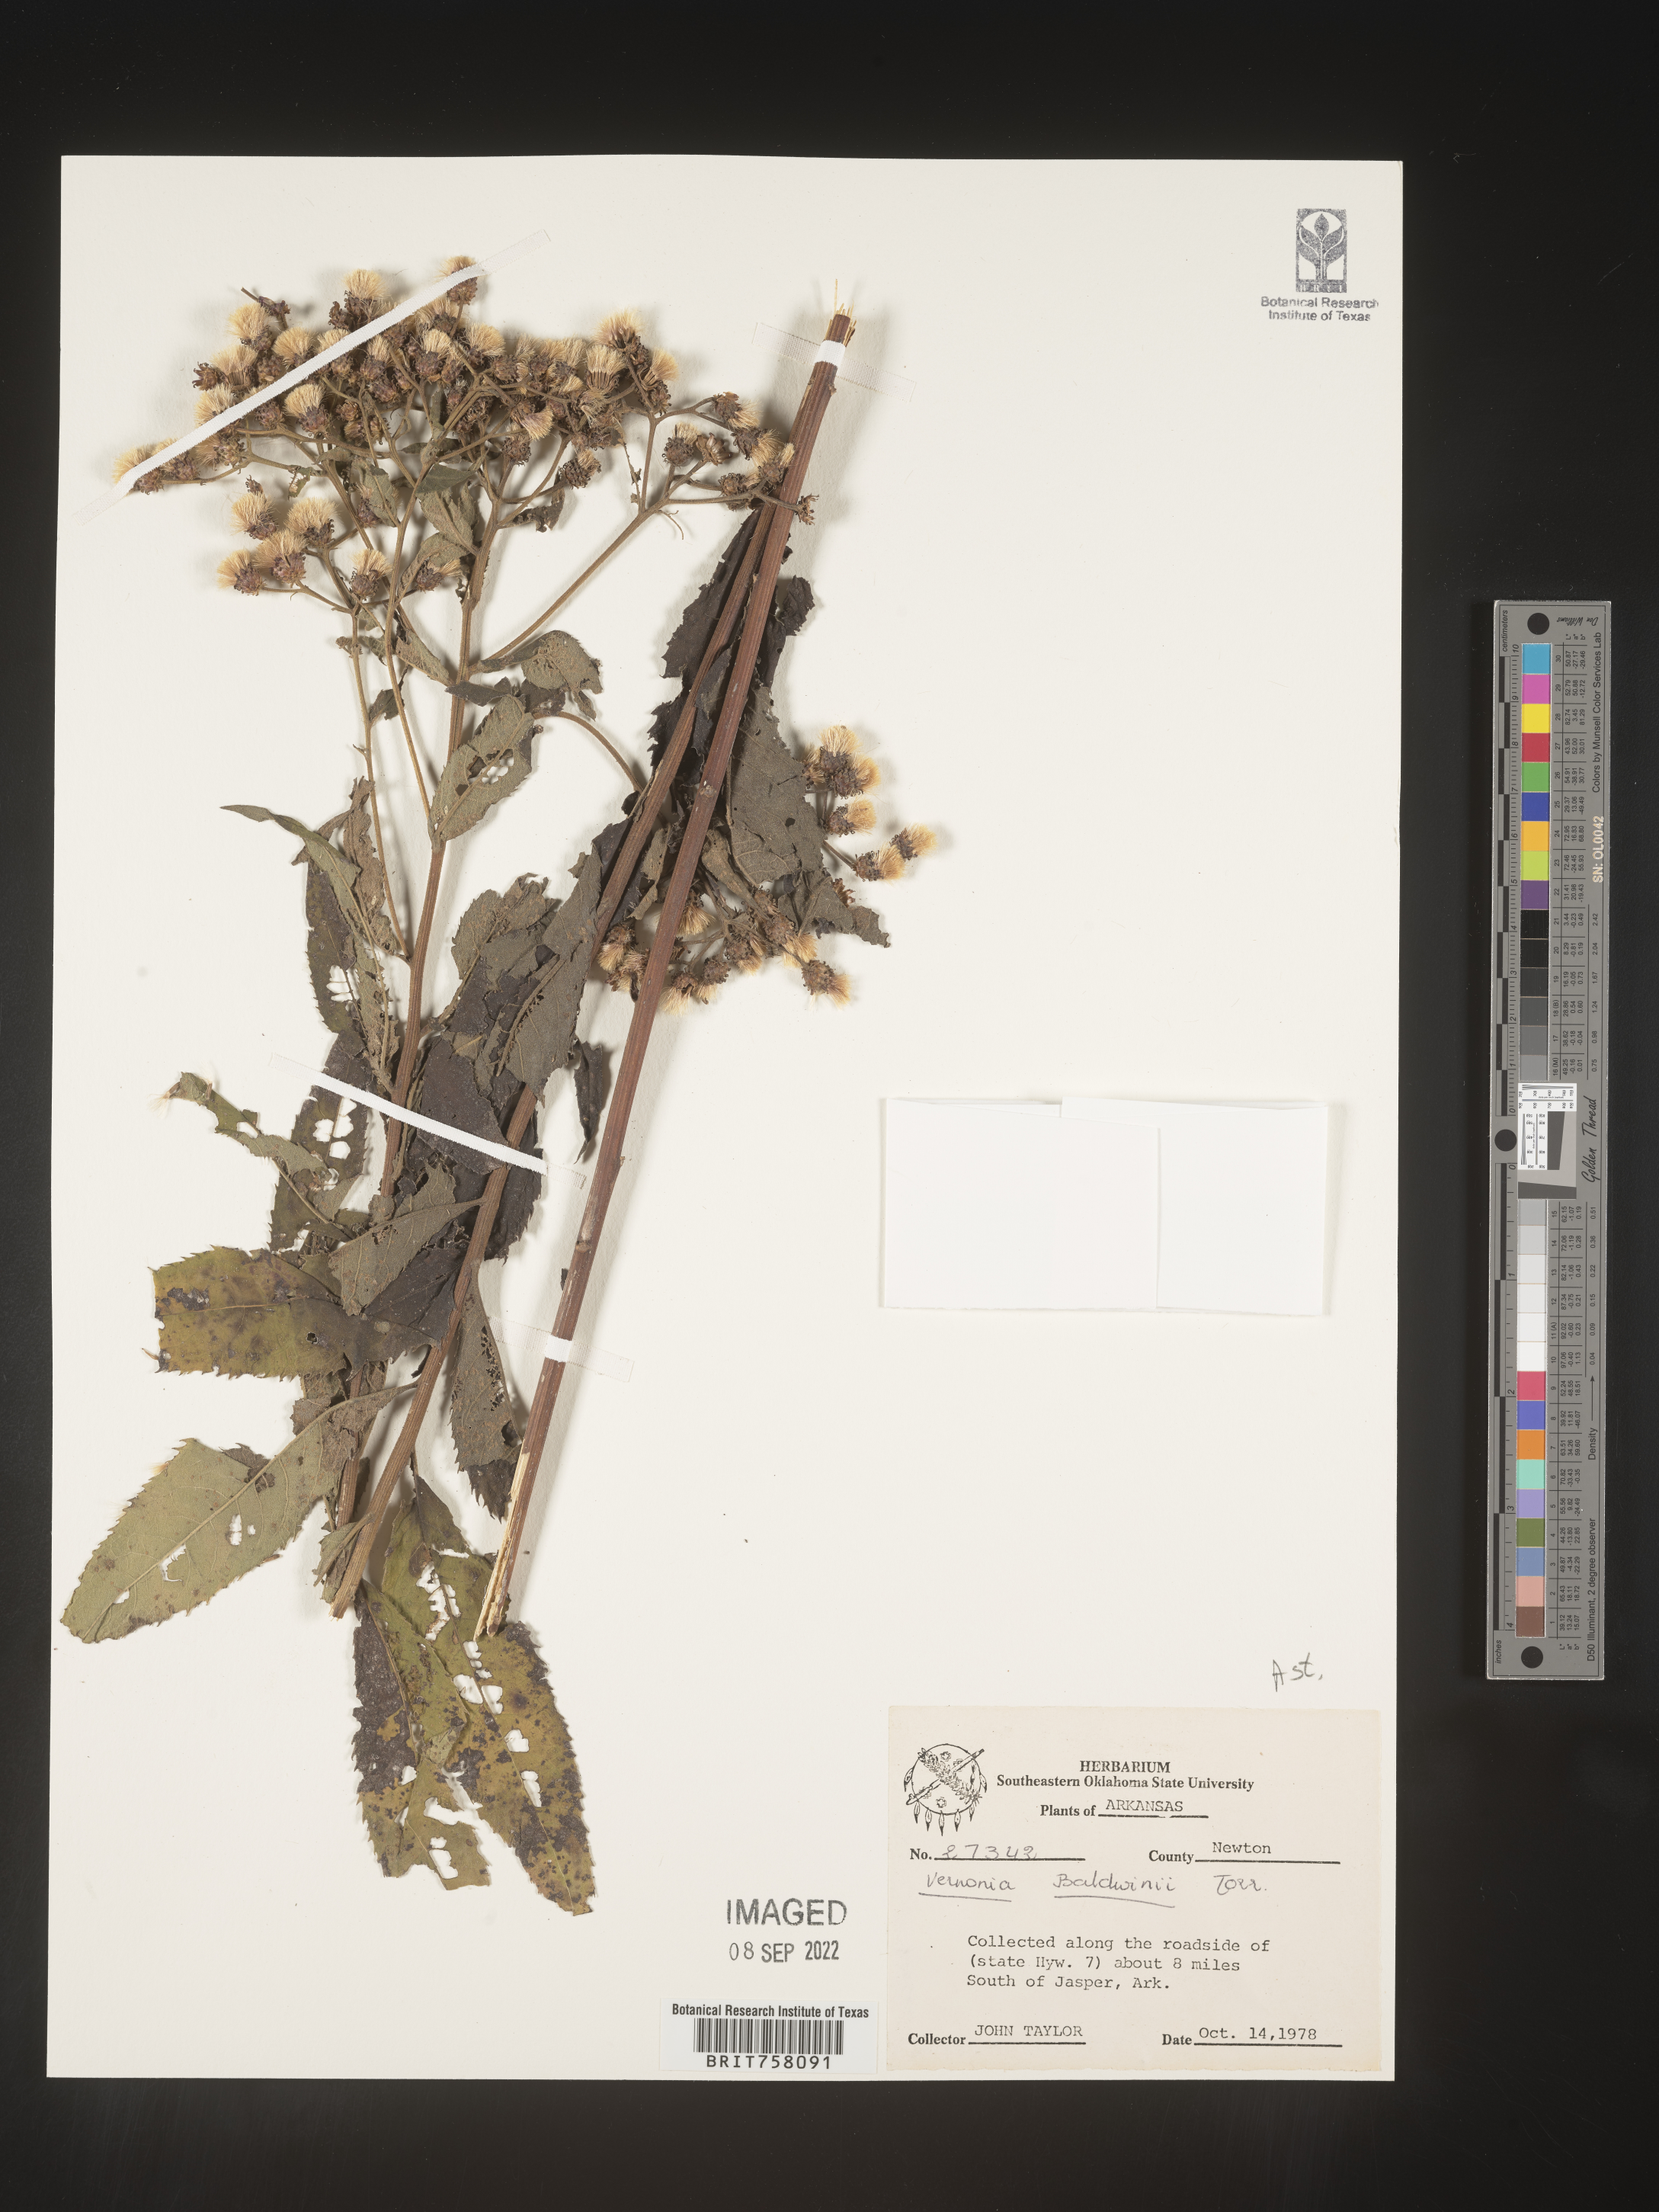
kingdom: Plantae
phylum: Tracheophyta
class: Magnoliopsida
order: Asterales
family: Asteraceae
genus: Vernonia
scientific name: Vernonia baldwinii
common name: Western ironweed
